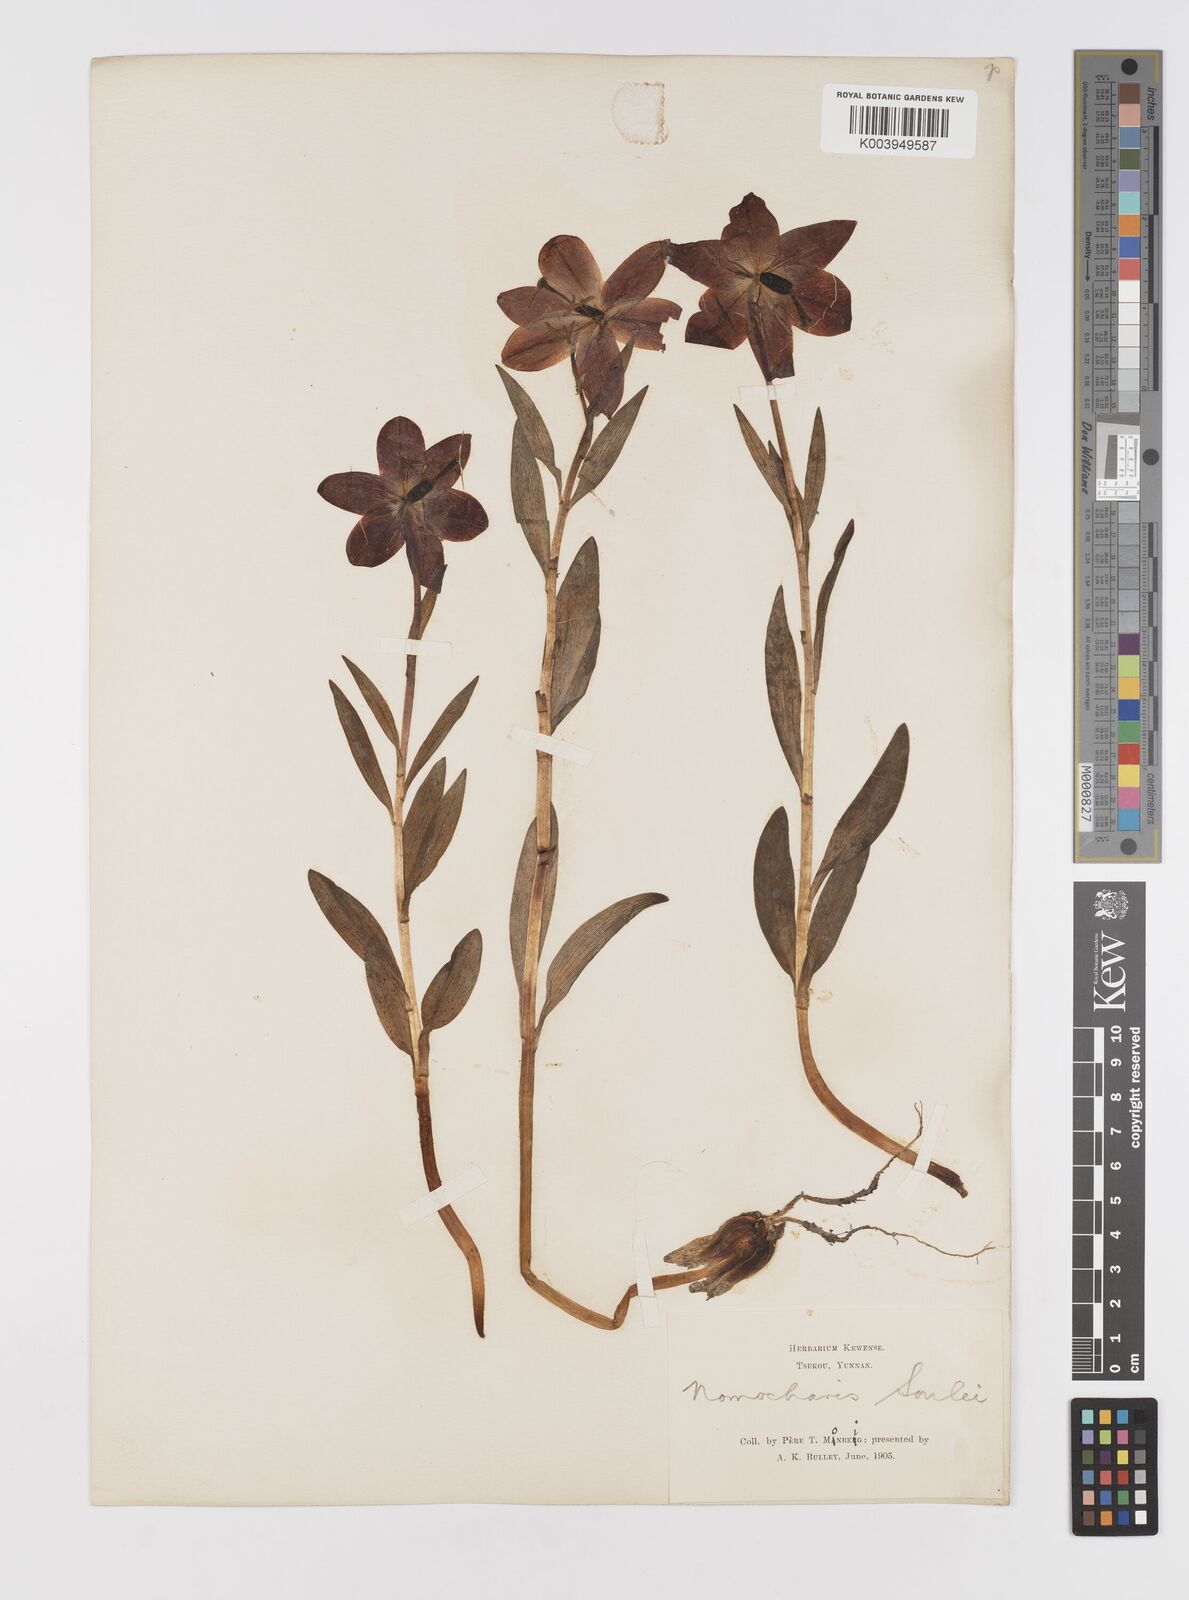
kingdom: Plantae
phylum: Tracheophyta
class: Liliopsida
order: Liliales
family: Liliaceae
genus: Lilium
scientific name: Lilium souliei
